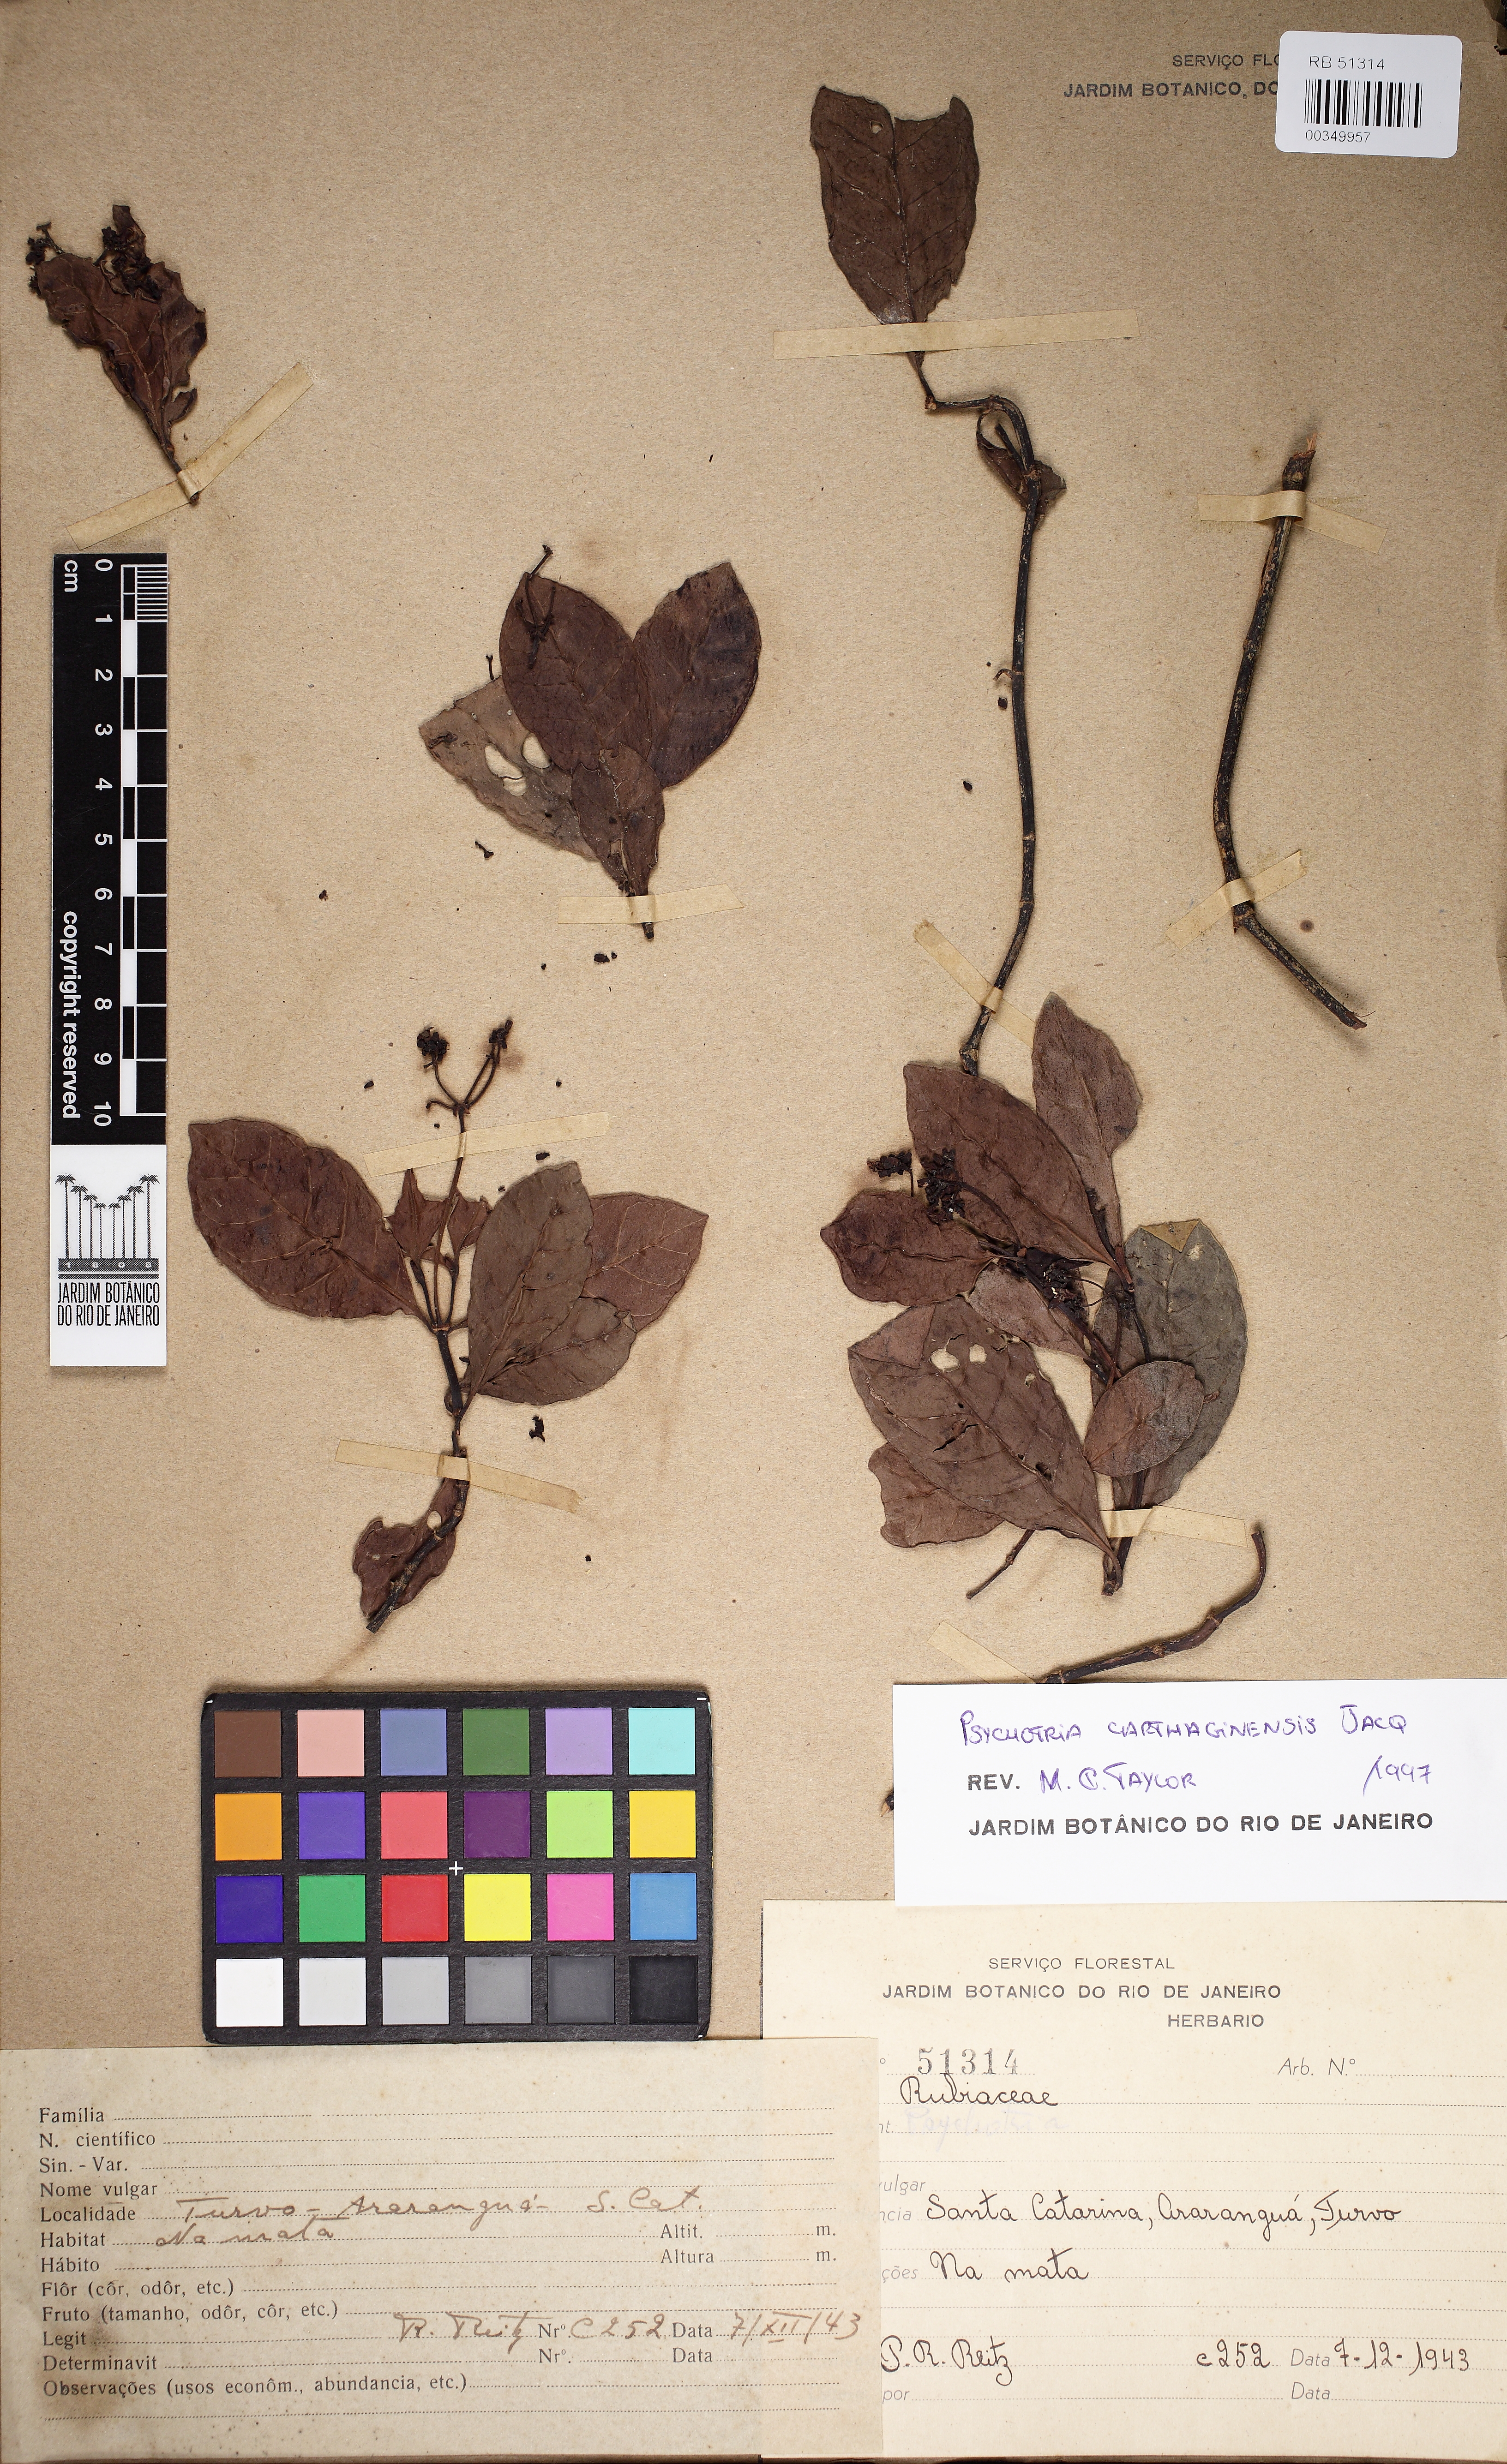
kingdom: Plantae
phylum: Tracheophyta
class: Magnoliopsida
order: Gentianales
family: Rubiaceae
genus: Psychotria
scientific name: Psychotria fractistipula
